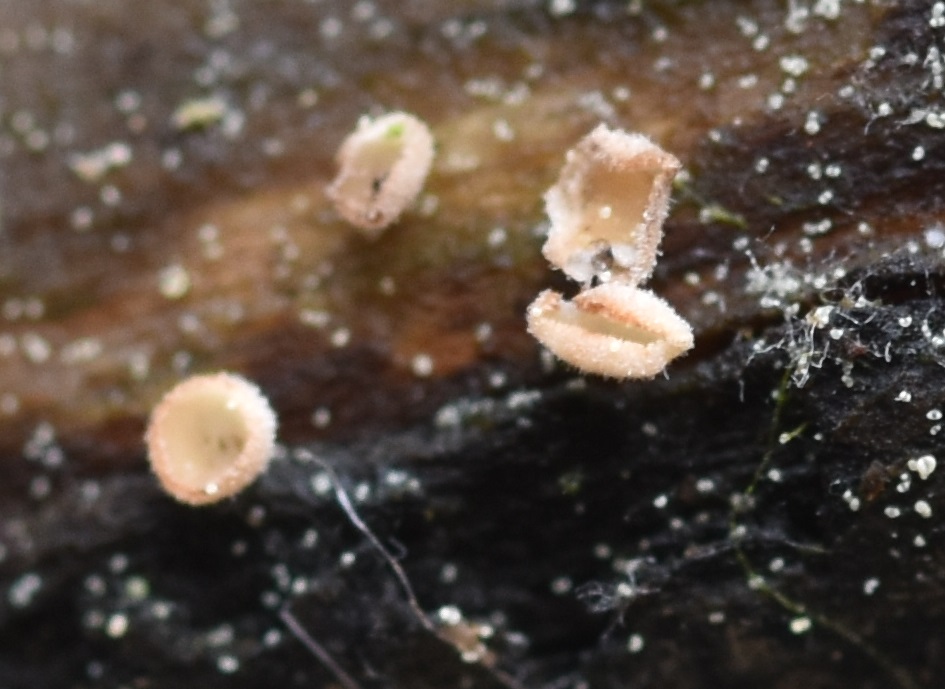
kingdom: Fungi
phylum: Ascomycota
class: Leotiomycetes
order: Helotiales
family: Lachnaceae
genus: Lachnum
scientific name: Lachnum pudibundum
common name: brude-frynseskive
